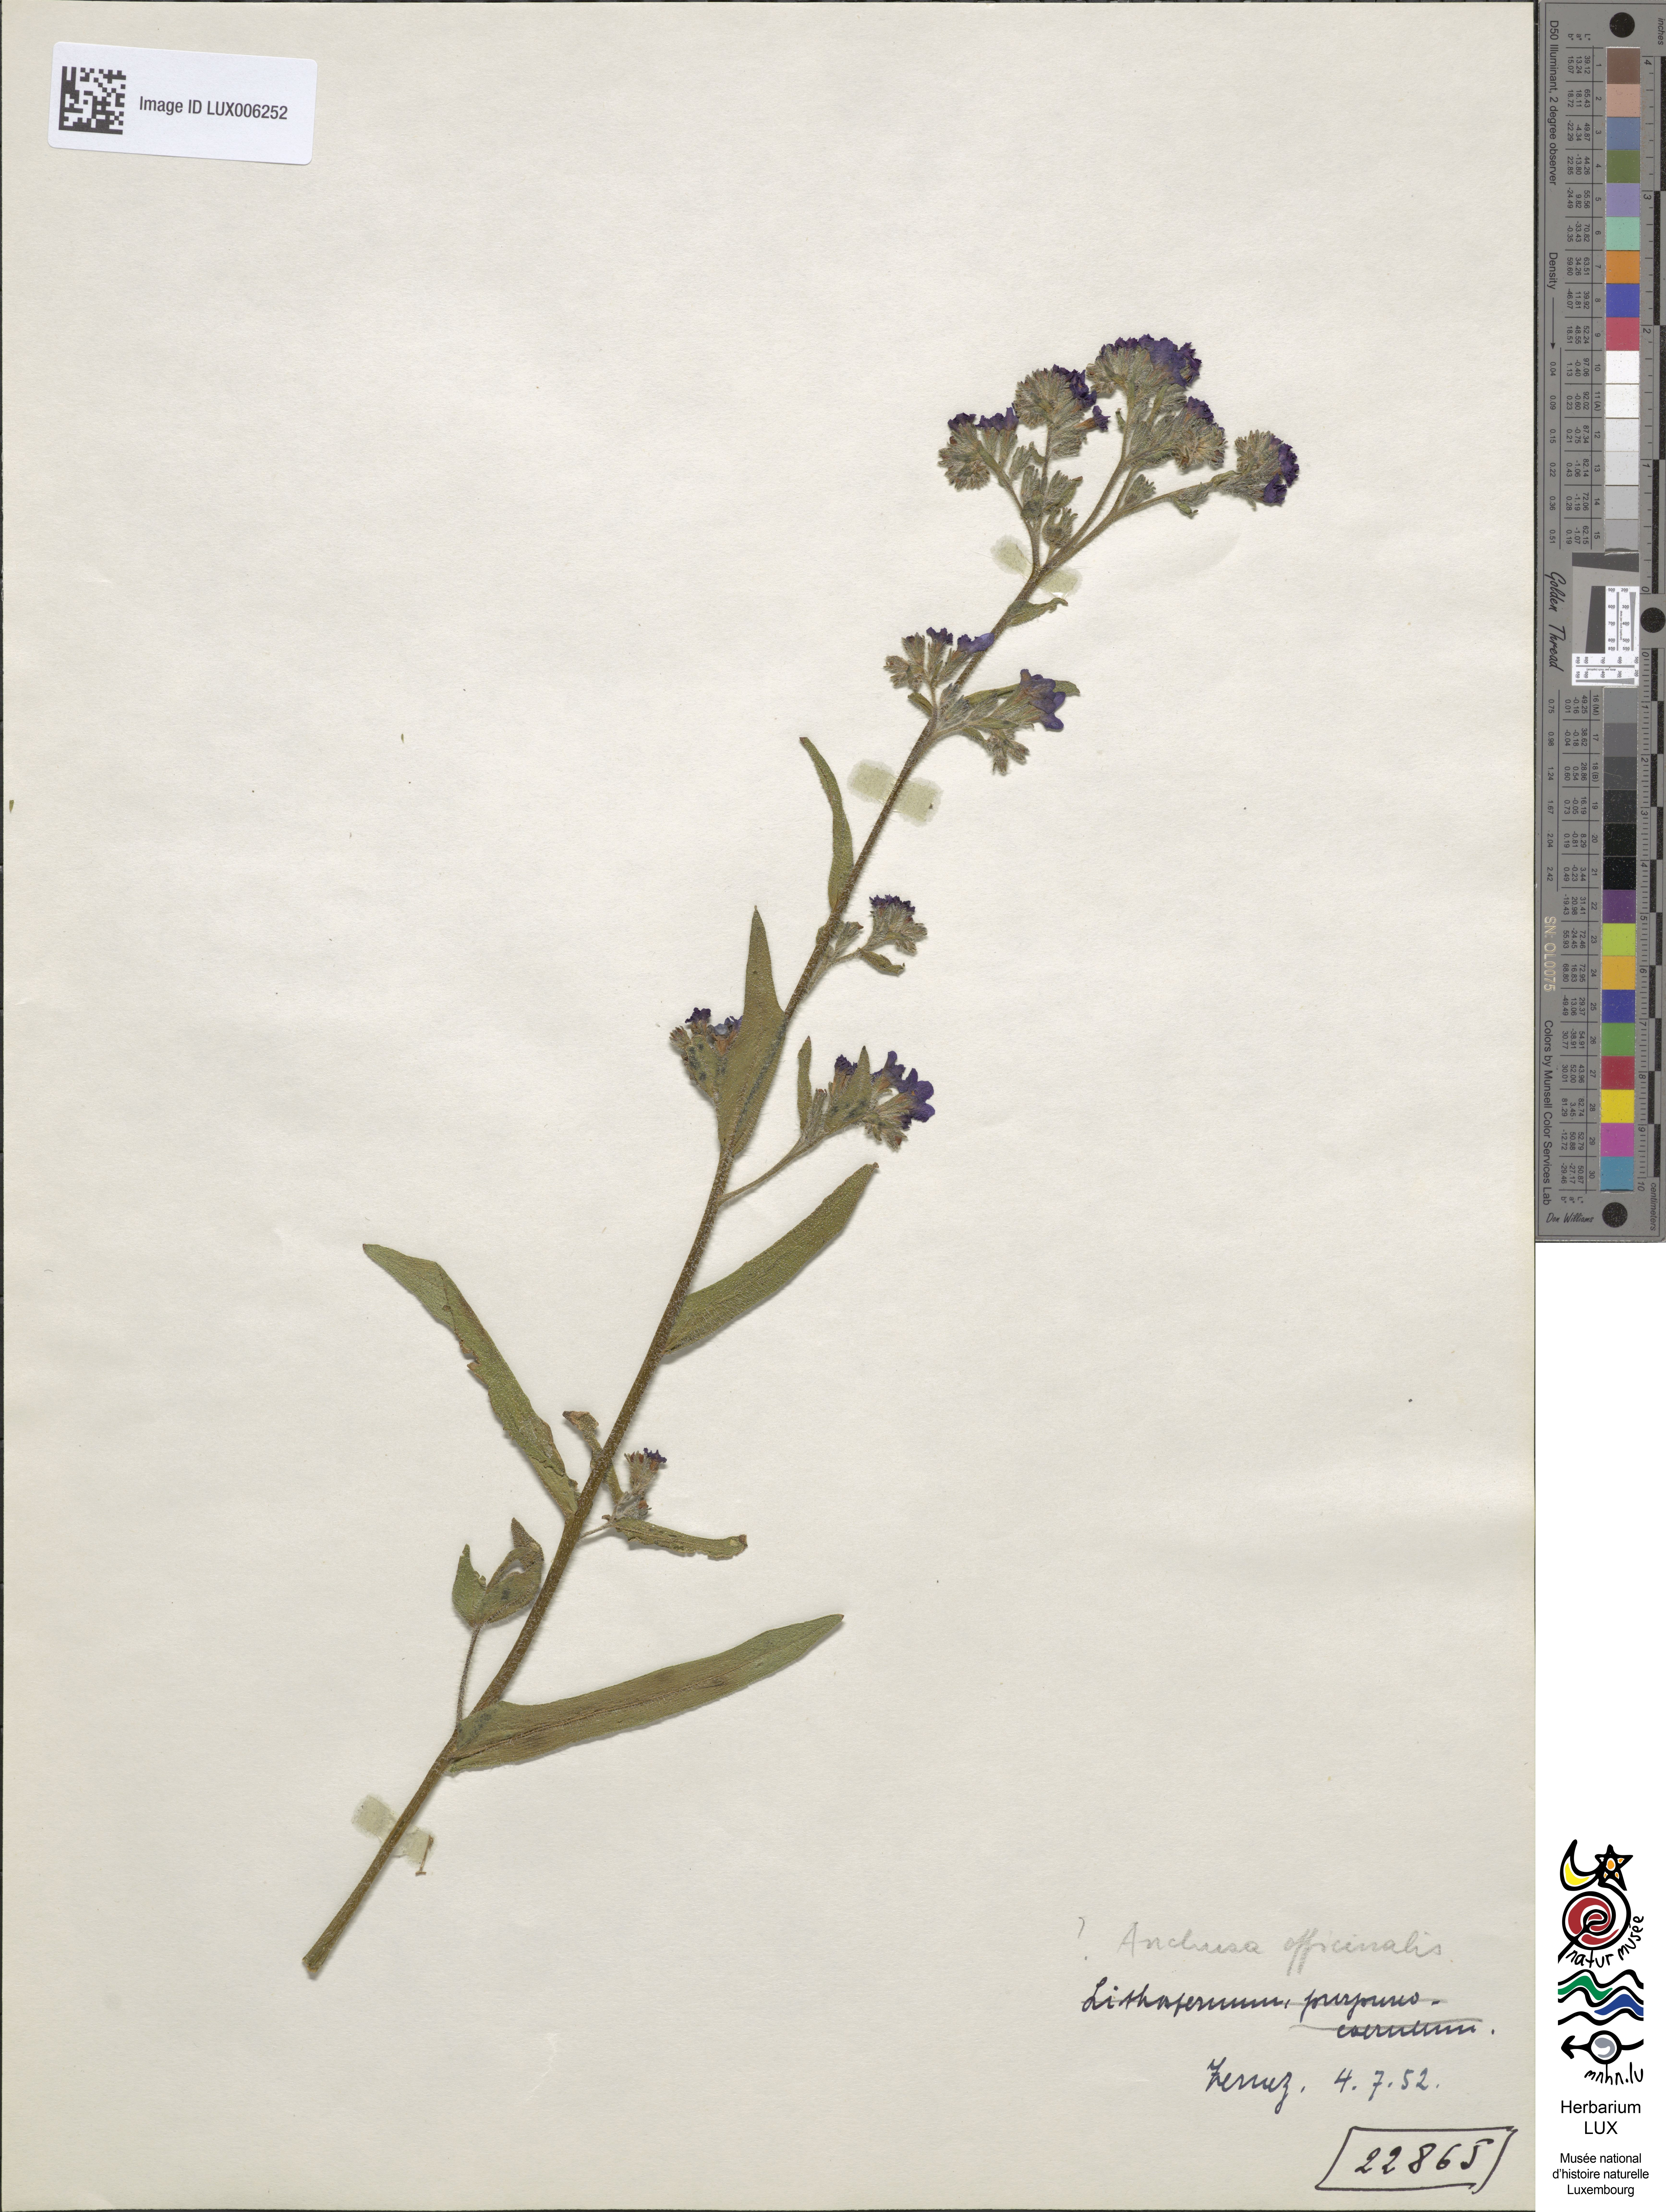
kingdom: Plantae
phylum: Tracheophyta
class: Magnoliopsida
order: Boraginales
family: Boraginaceae
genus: Anchusa
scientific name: Anchusa officinalis
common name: Alkanet
